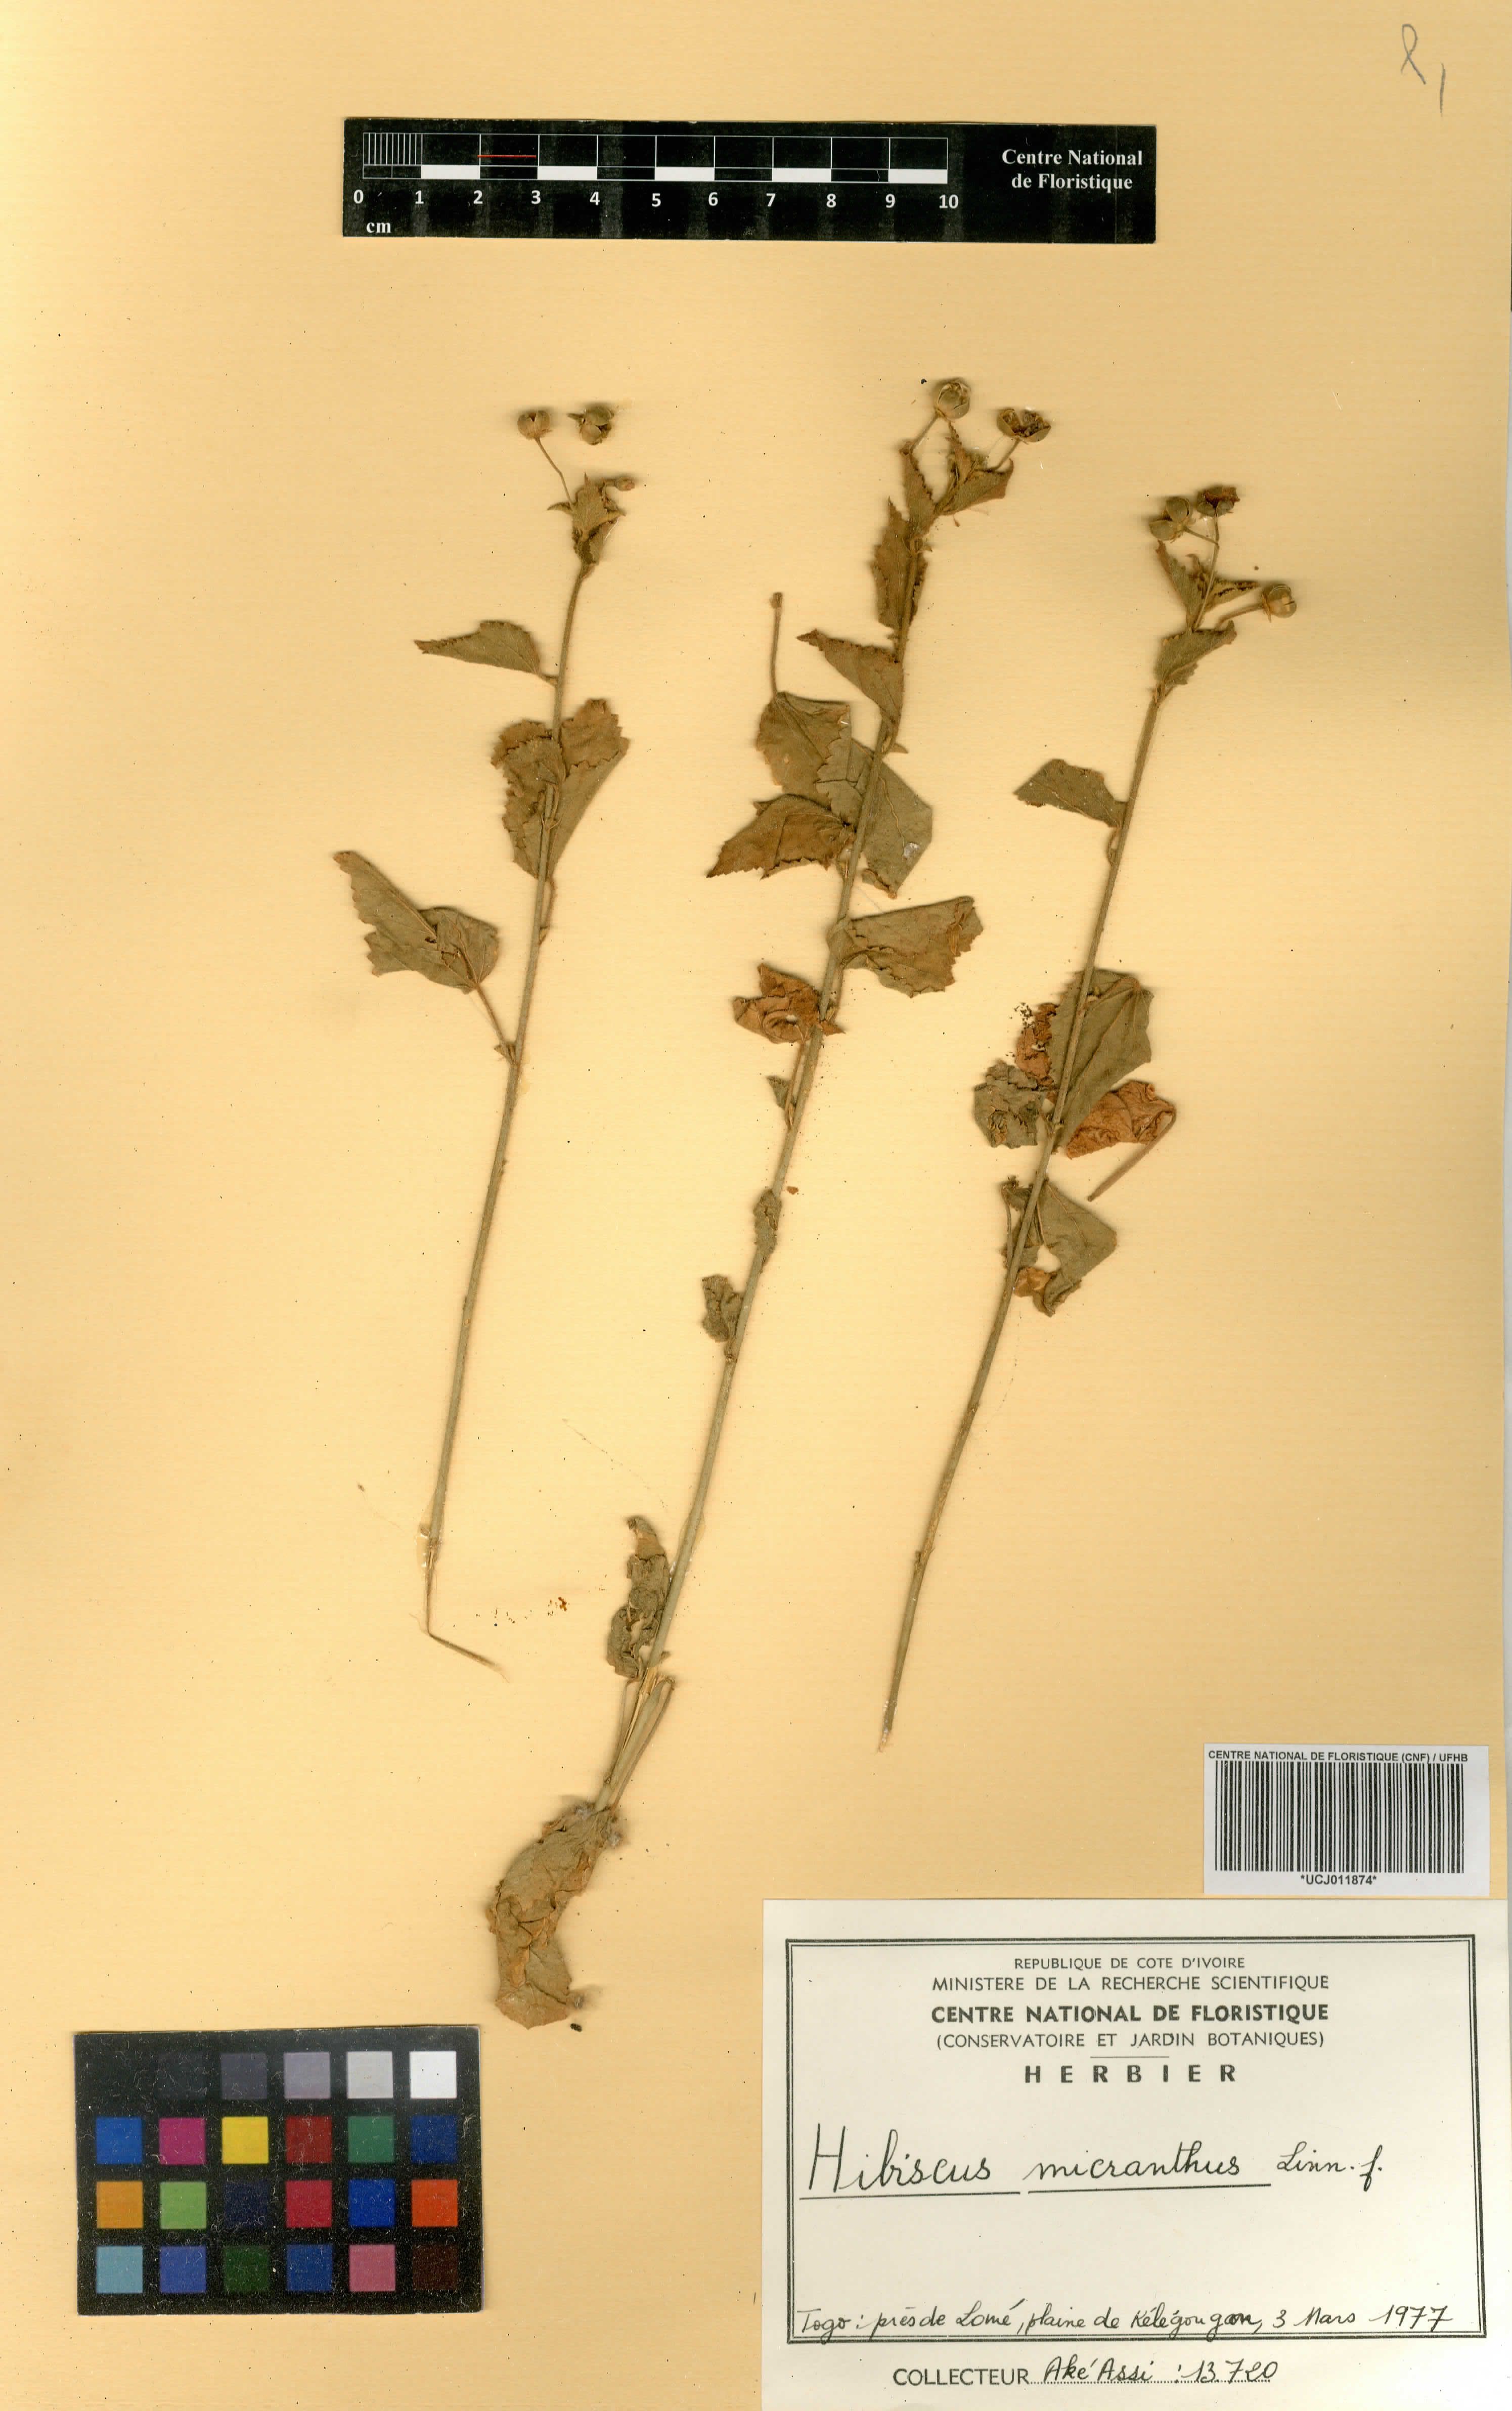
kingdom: Plantae
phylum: Tracheophyta
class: Magnoliopsida
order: Malvales
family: Malvaceae
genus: Hibiscus
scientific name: Hibiscus micranthus
